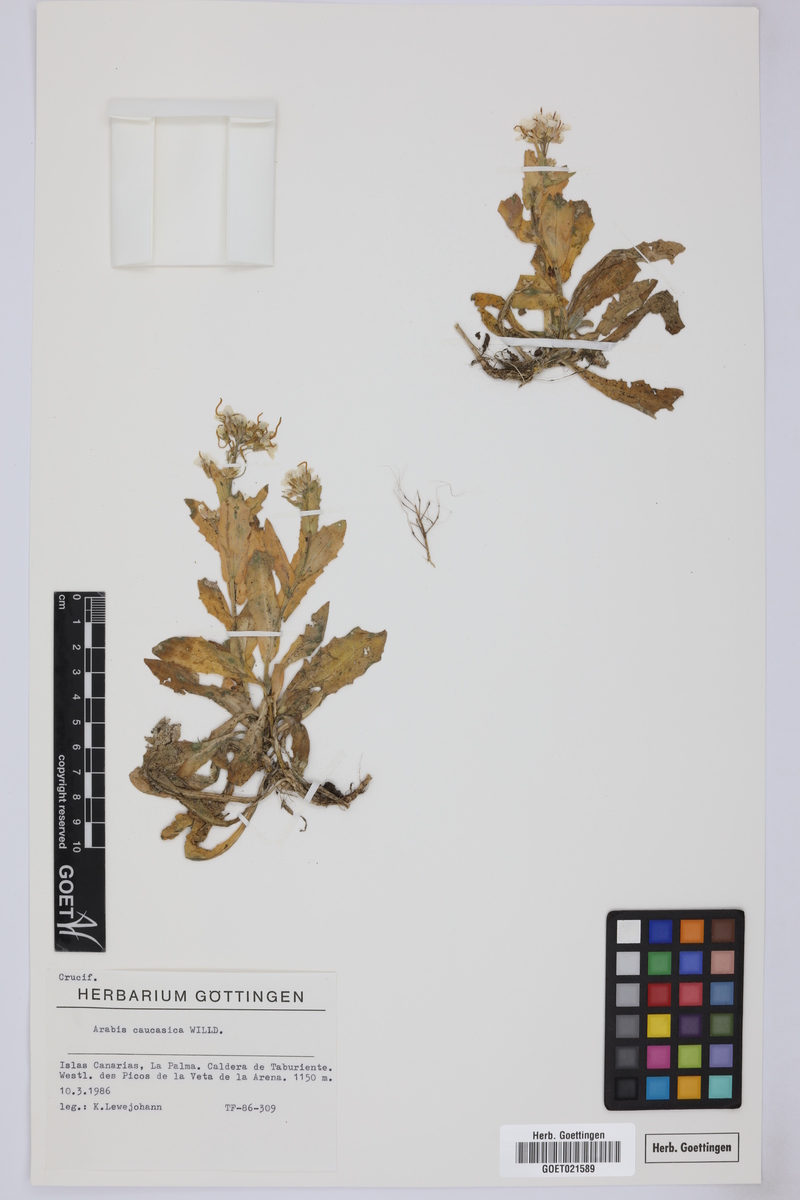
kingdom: Plantae
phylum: Tracheophyta
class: Magnoliopsida
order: Brassicales
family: Brassicaceae
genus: Arabis
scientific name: Arabis caucasica
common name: Gray rockcress
